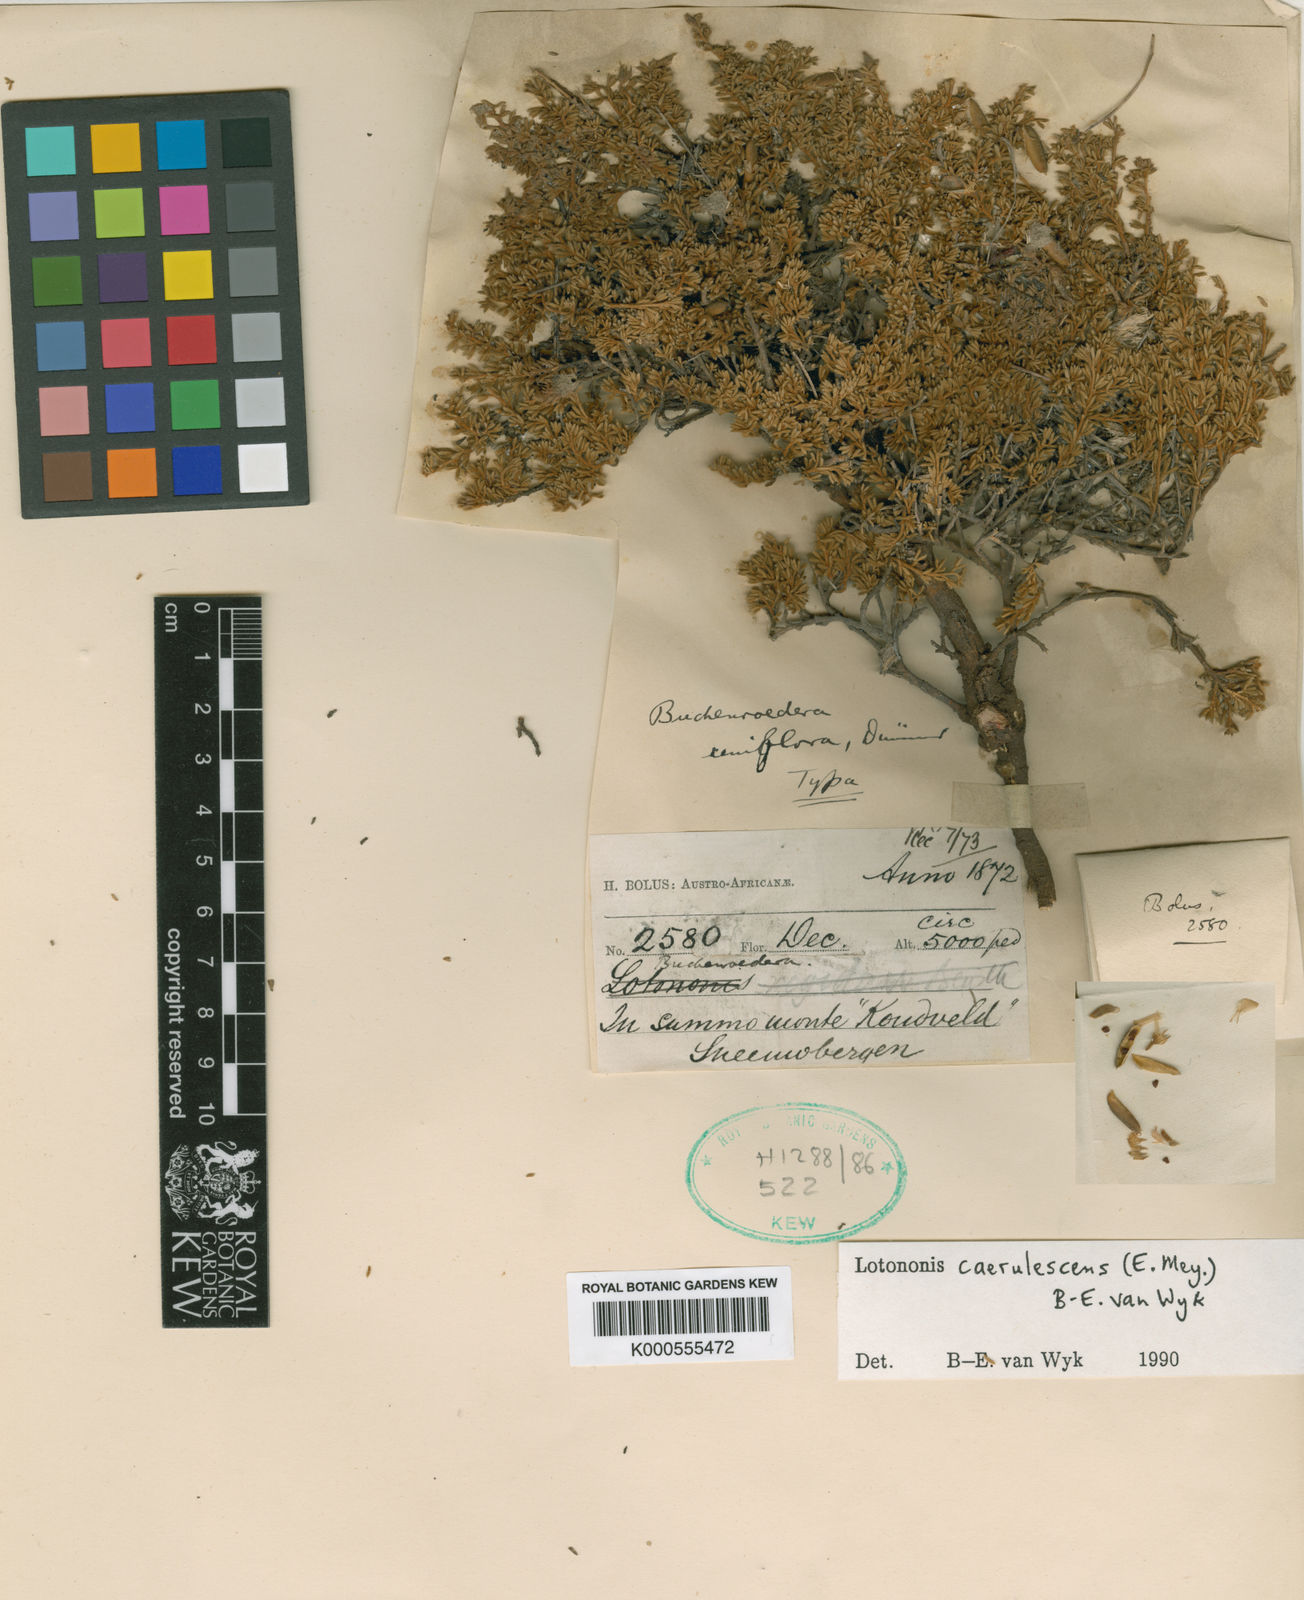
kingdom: Plantae
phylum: Tracheophyta
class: Magnoliopsida
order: Fabales
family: Fabaceae
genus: Lotononis
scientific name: Lotononis caerulescens
